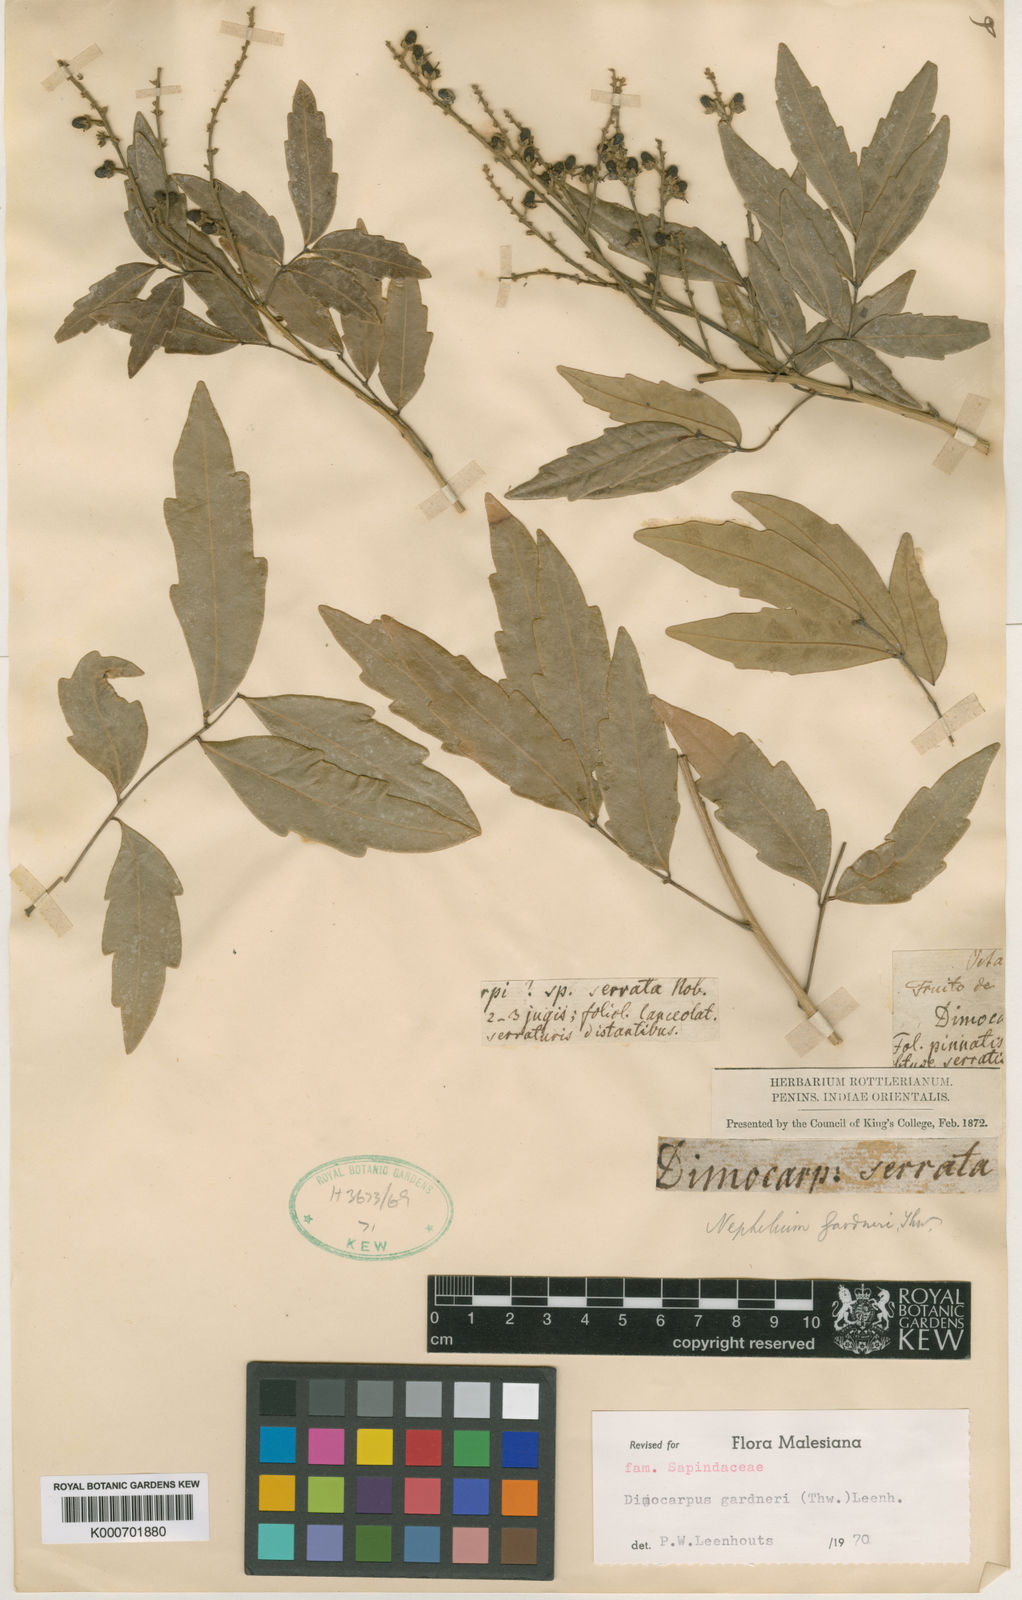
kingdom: Plantae
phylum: Tracheophyta
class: Magnoliopsida
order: Sapindales
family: Sapindaceae
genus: Dimocarpus
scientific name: Dimocarpus gardneri
